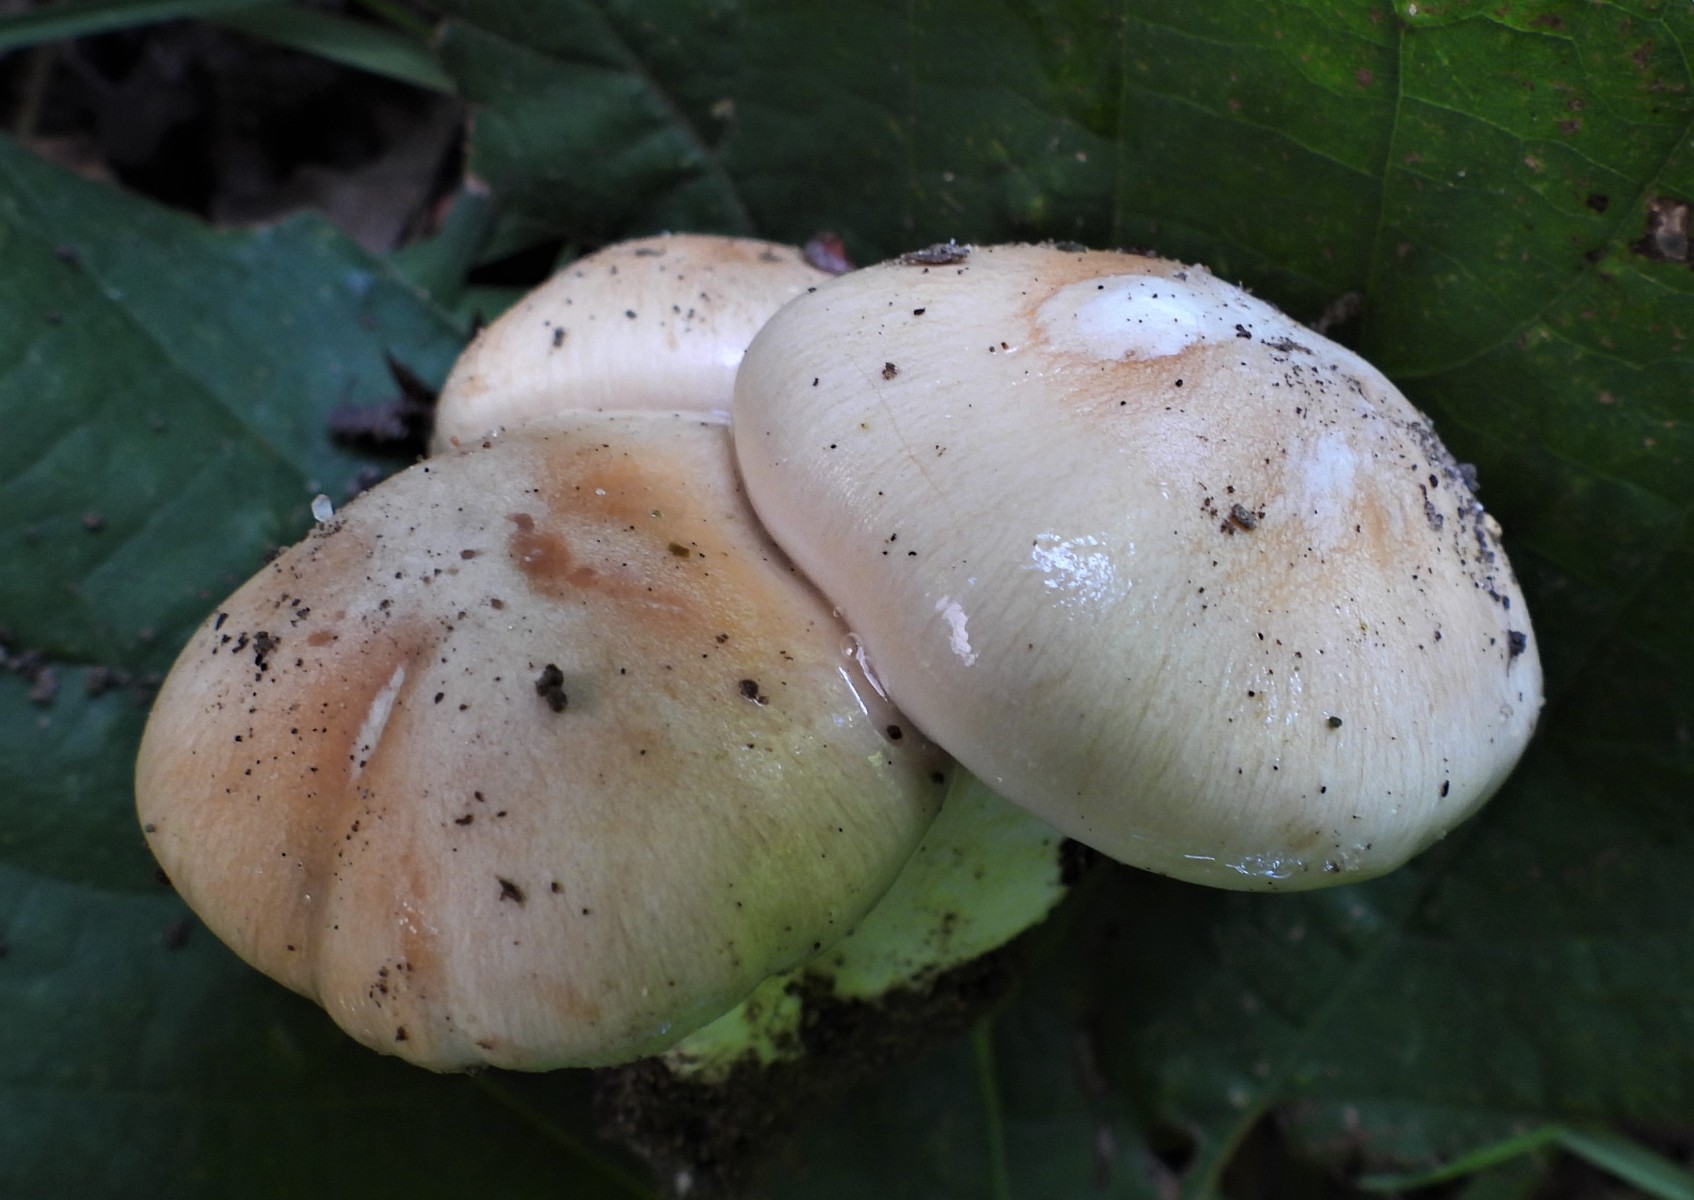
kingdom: Fungi
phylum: Basidiomycota
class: Agaricomycetes
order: Agaricales
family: Cortinariaceae
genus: Thaxterogaster
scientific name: Thaxterogaster barbatus
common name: elfenbens-slørhat
